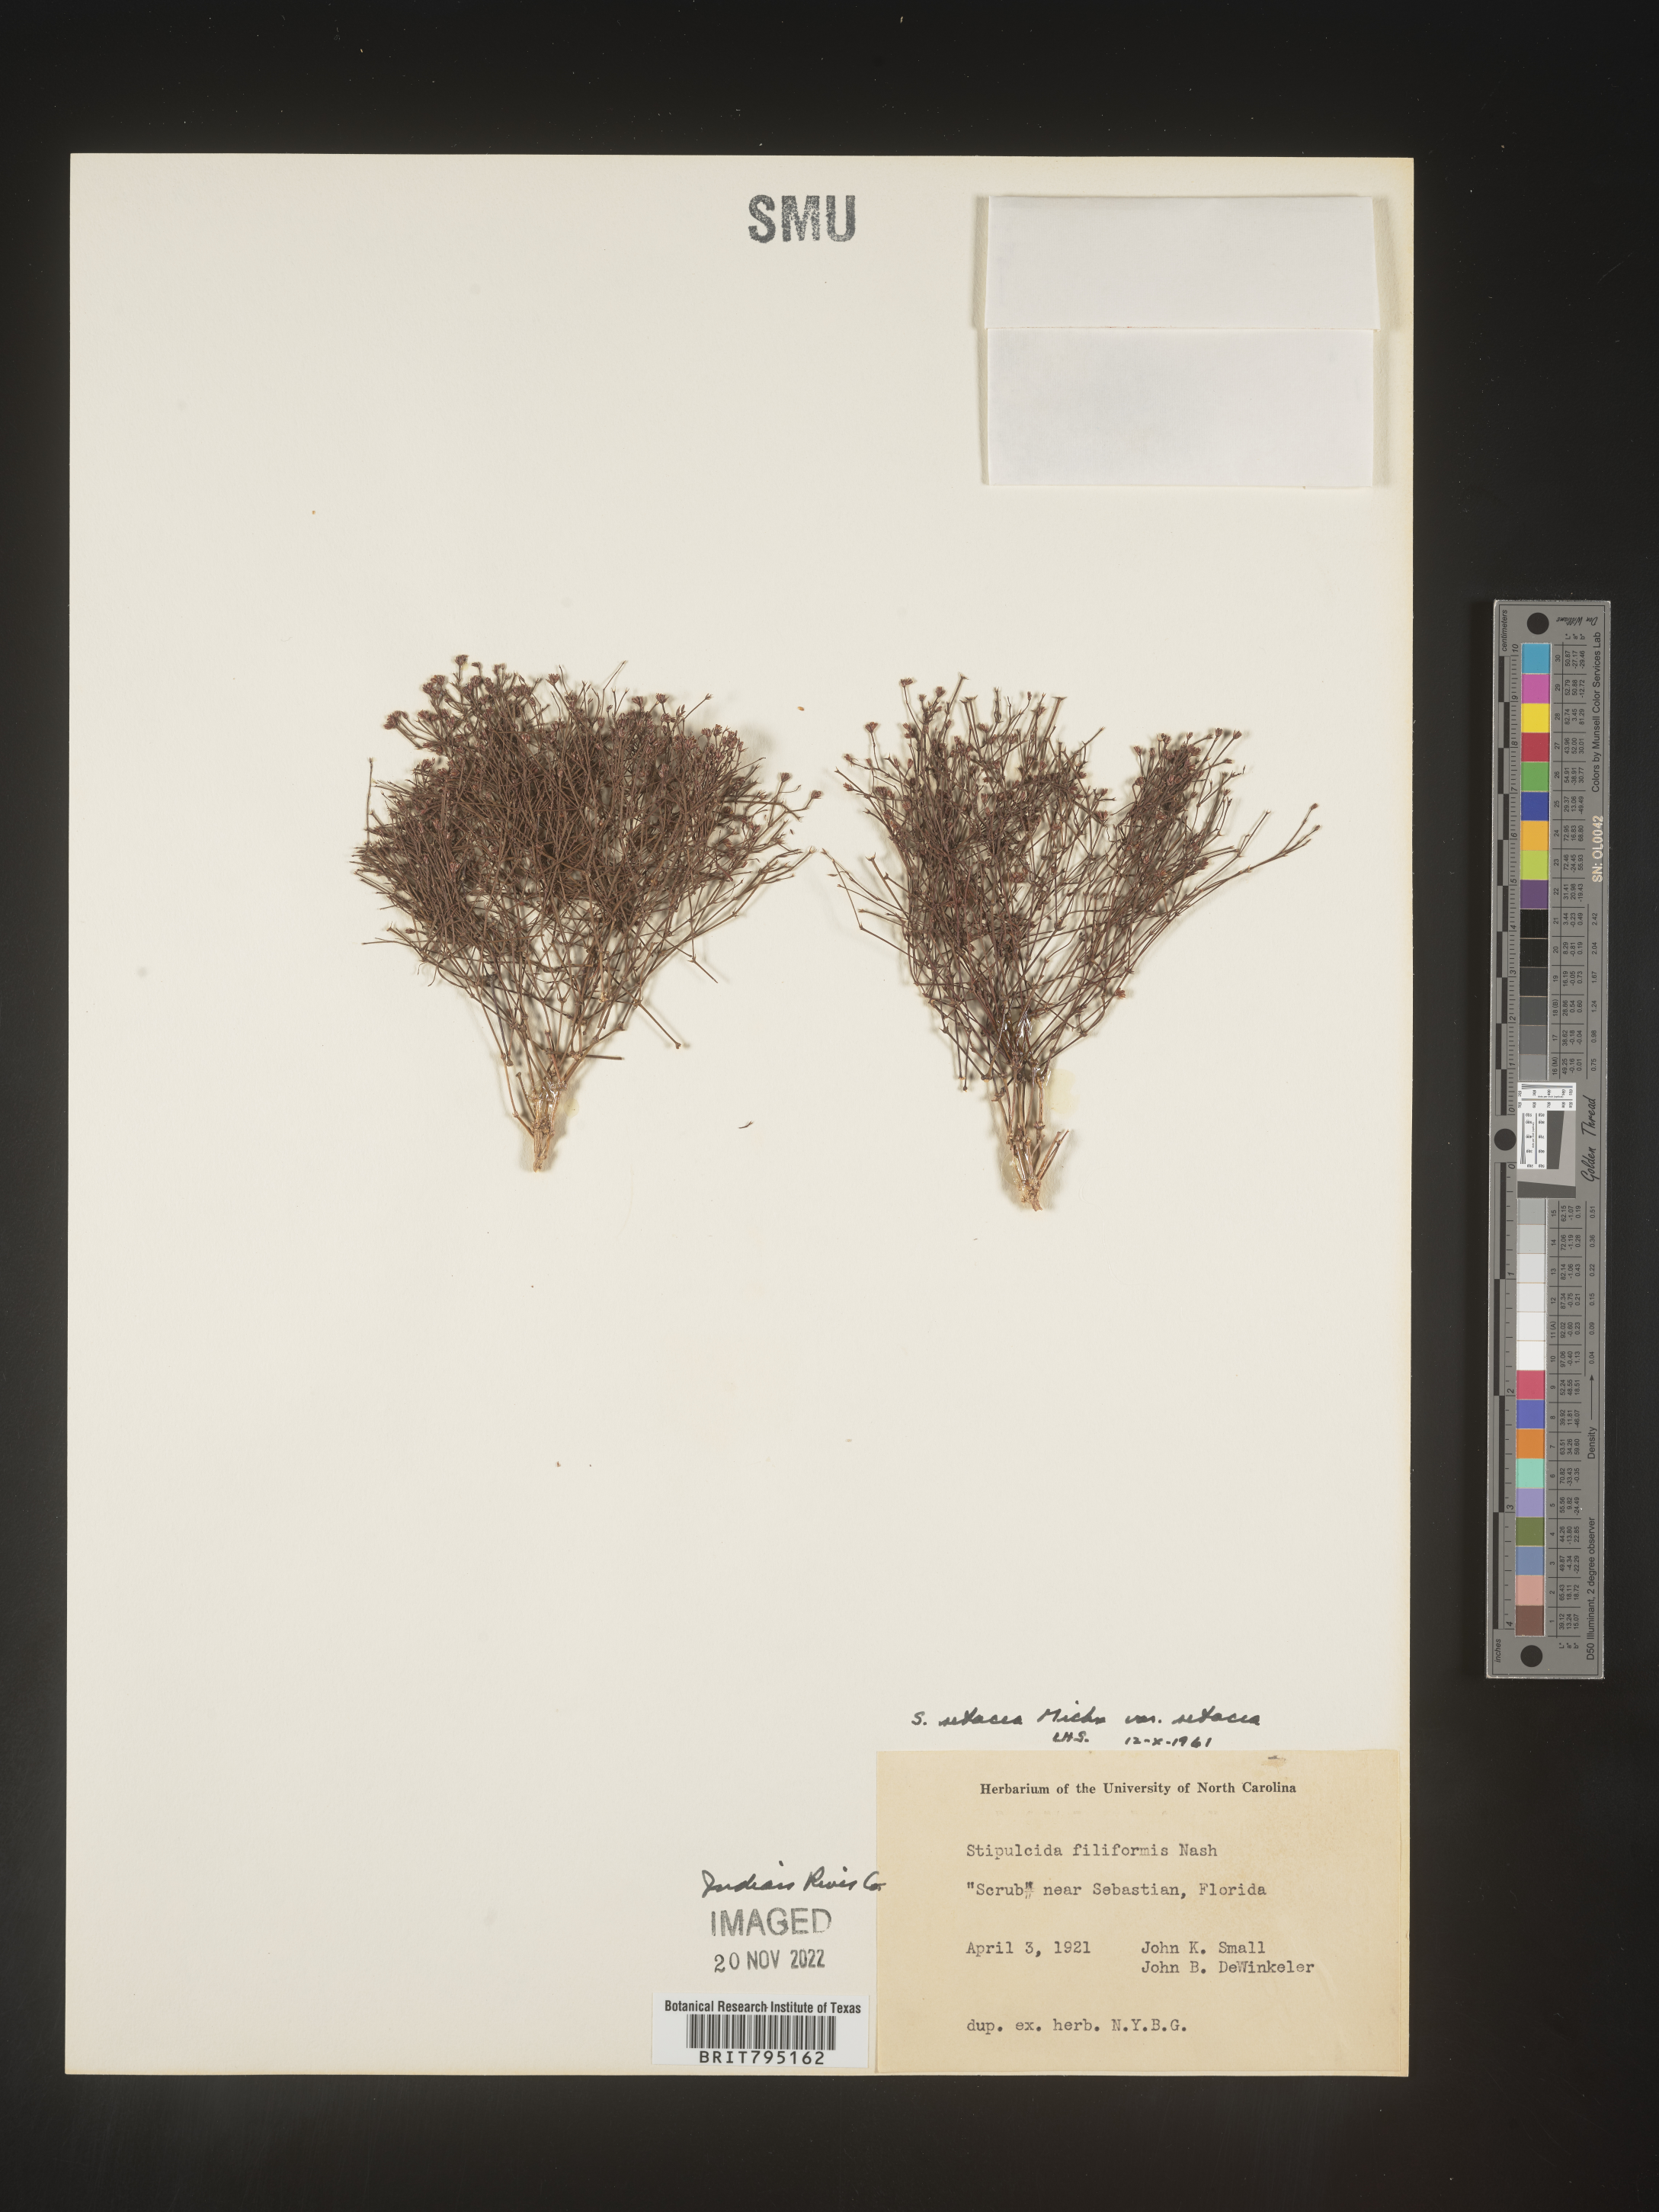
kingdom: Plantae
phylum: Tracheophyta
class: Magnoliopsida
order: Caryophyllales
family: Caryophyllaceae
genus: Stipulicida
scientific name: Stipulicida
